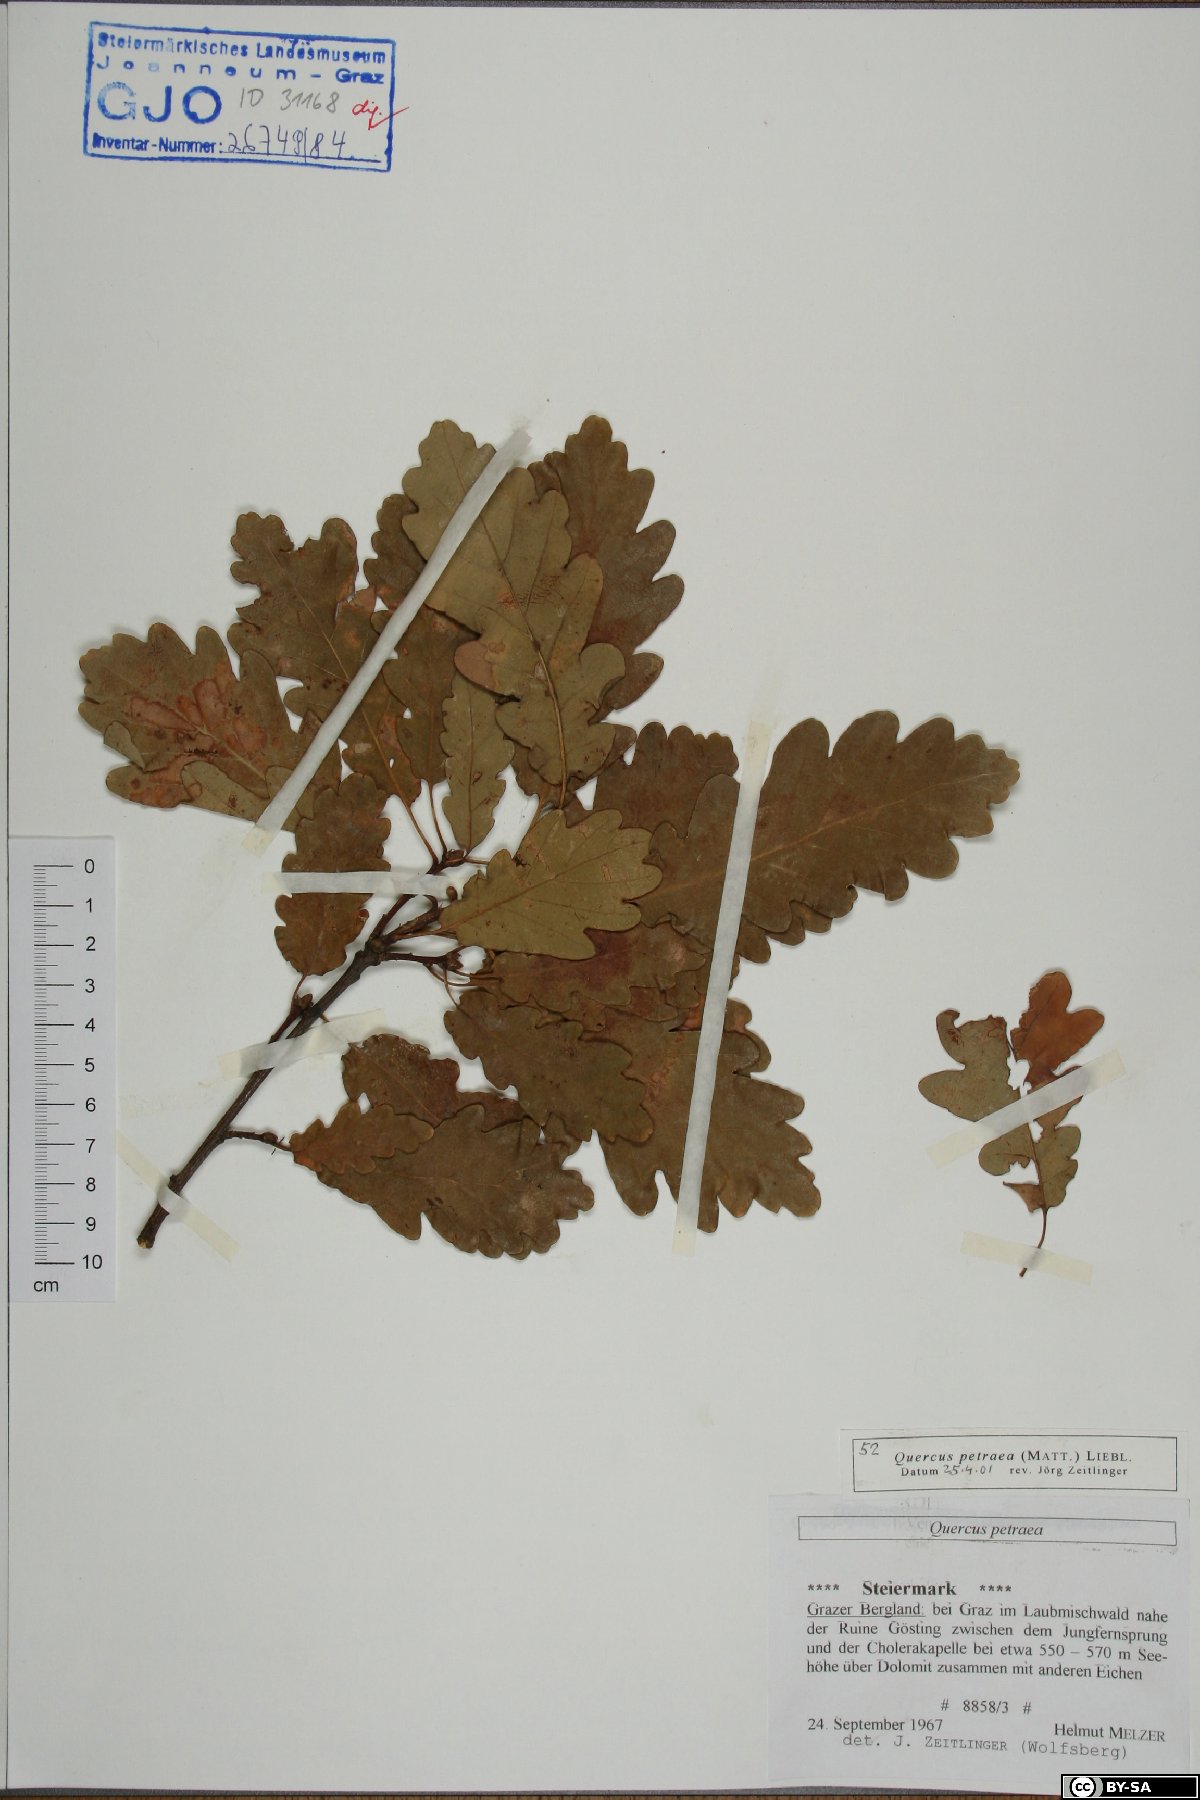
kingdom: Plantae
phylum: Tracheophyta
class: Magnoliopsida
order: Fagales
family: Fagaceae
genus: Quercus
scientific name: Quercus petraea
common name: Sessile oak
